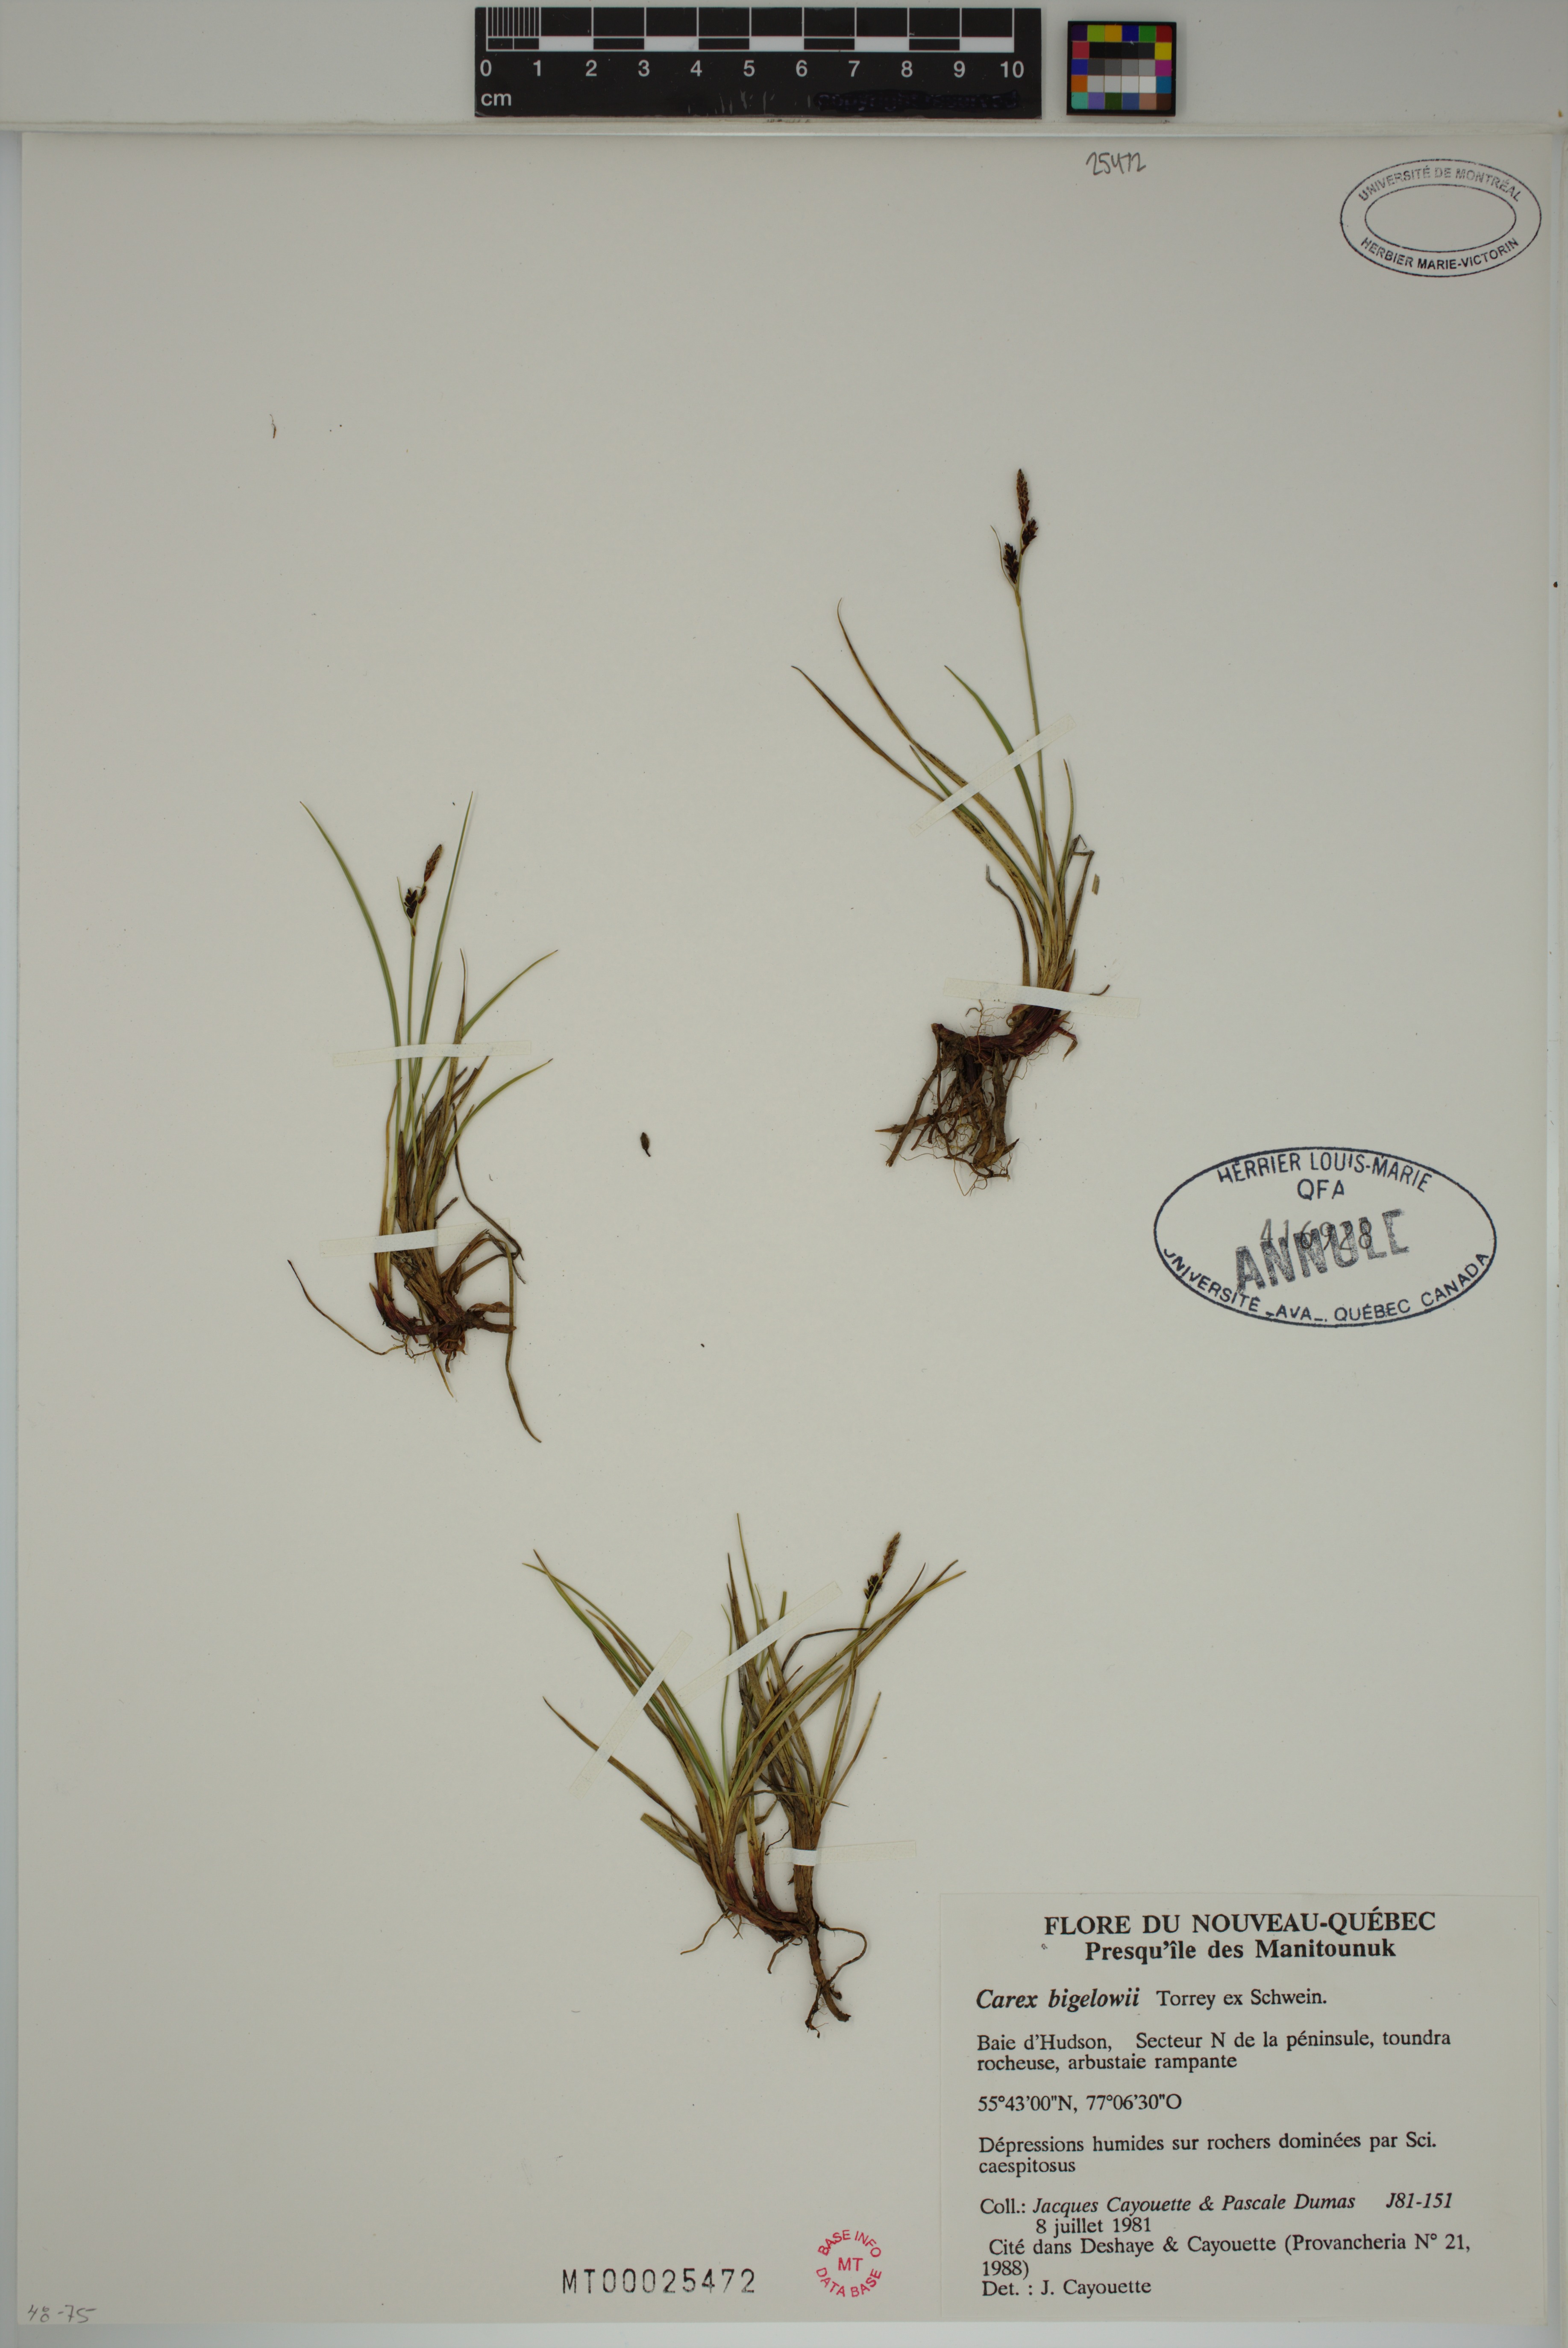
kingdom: Plantae
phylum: Tracheophyta
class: Liliopsida
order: Poales
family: Cyperaceae
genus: Carex
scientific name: Carex bigelowii
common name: Stiff sedge
